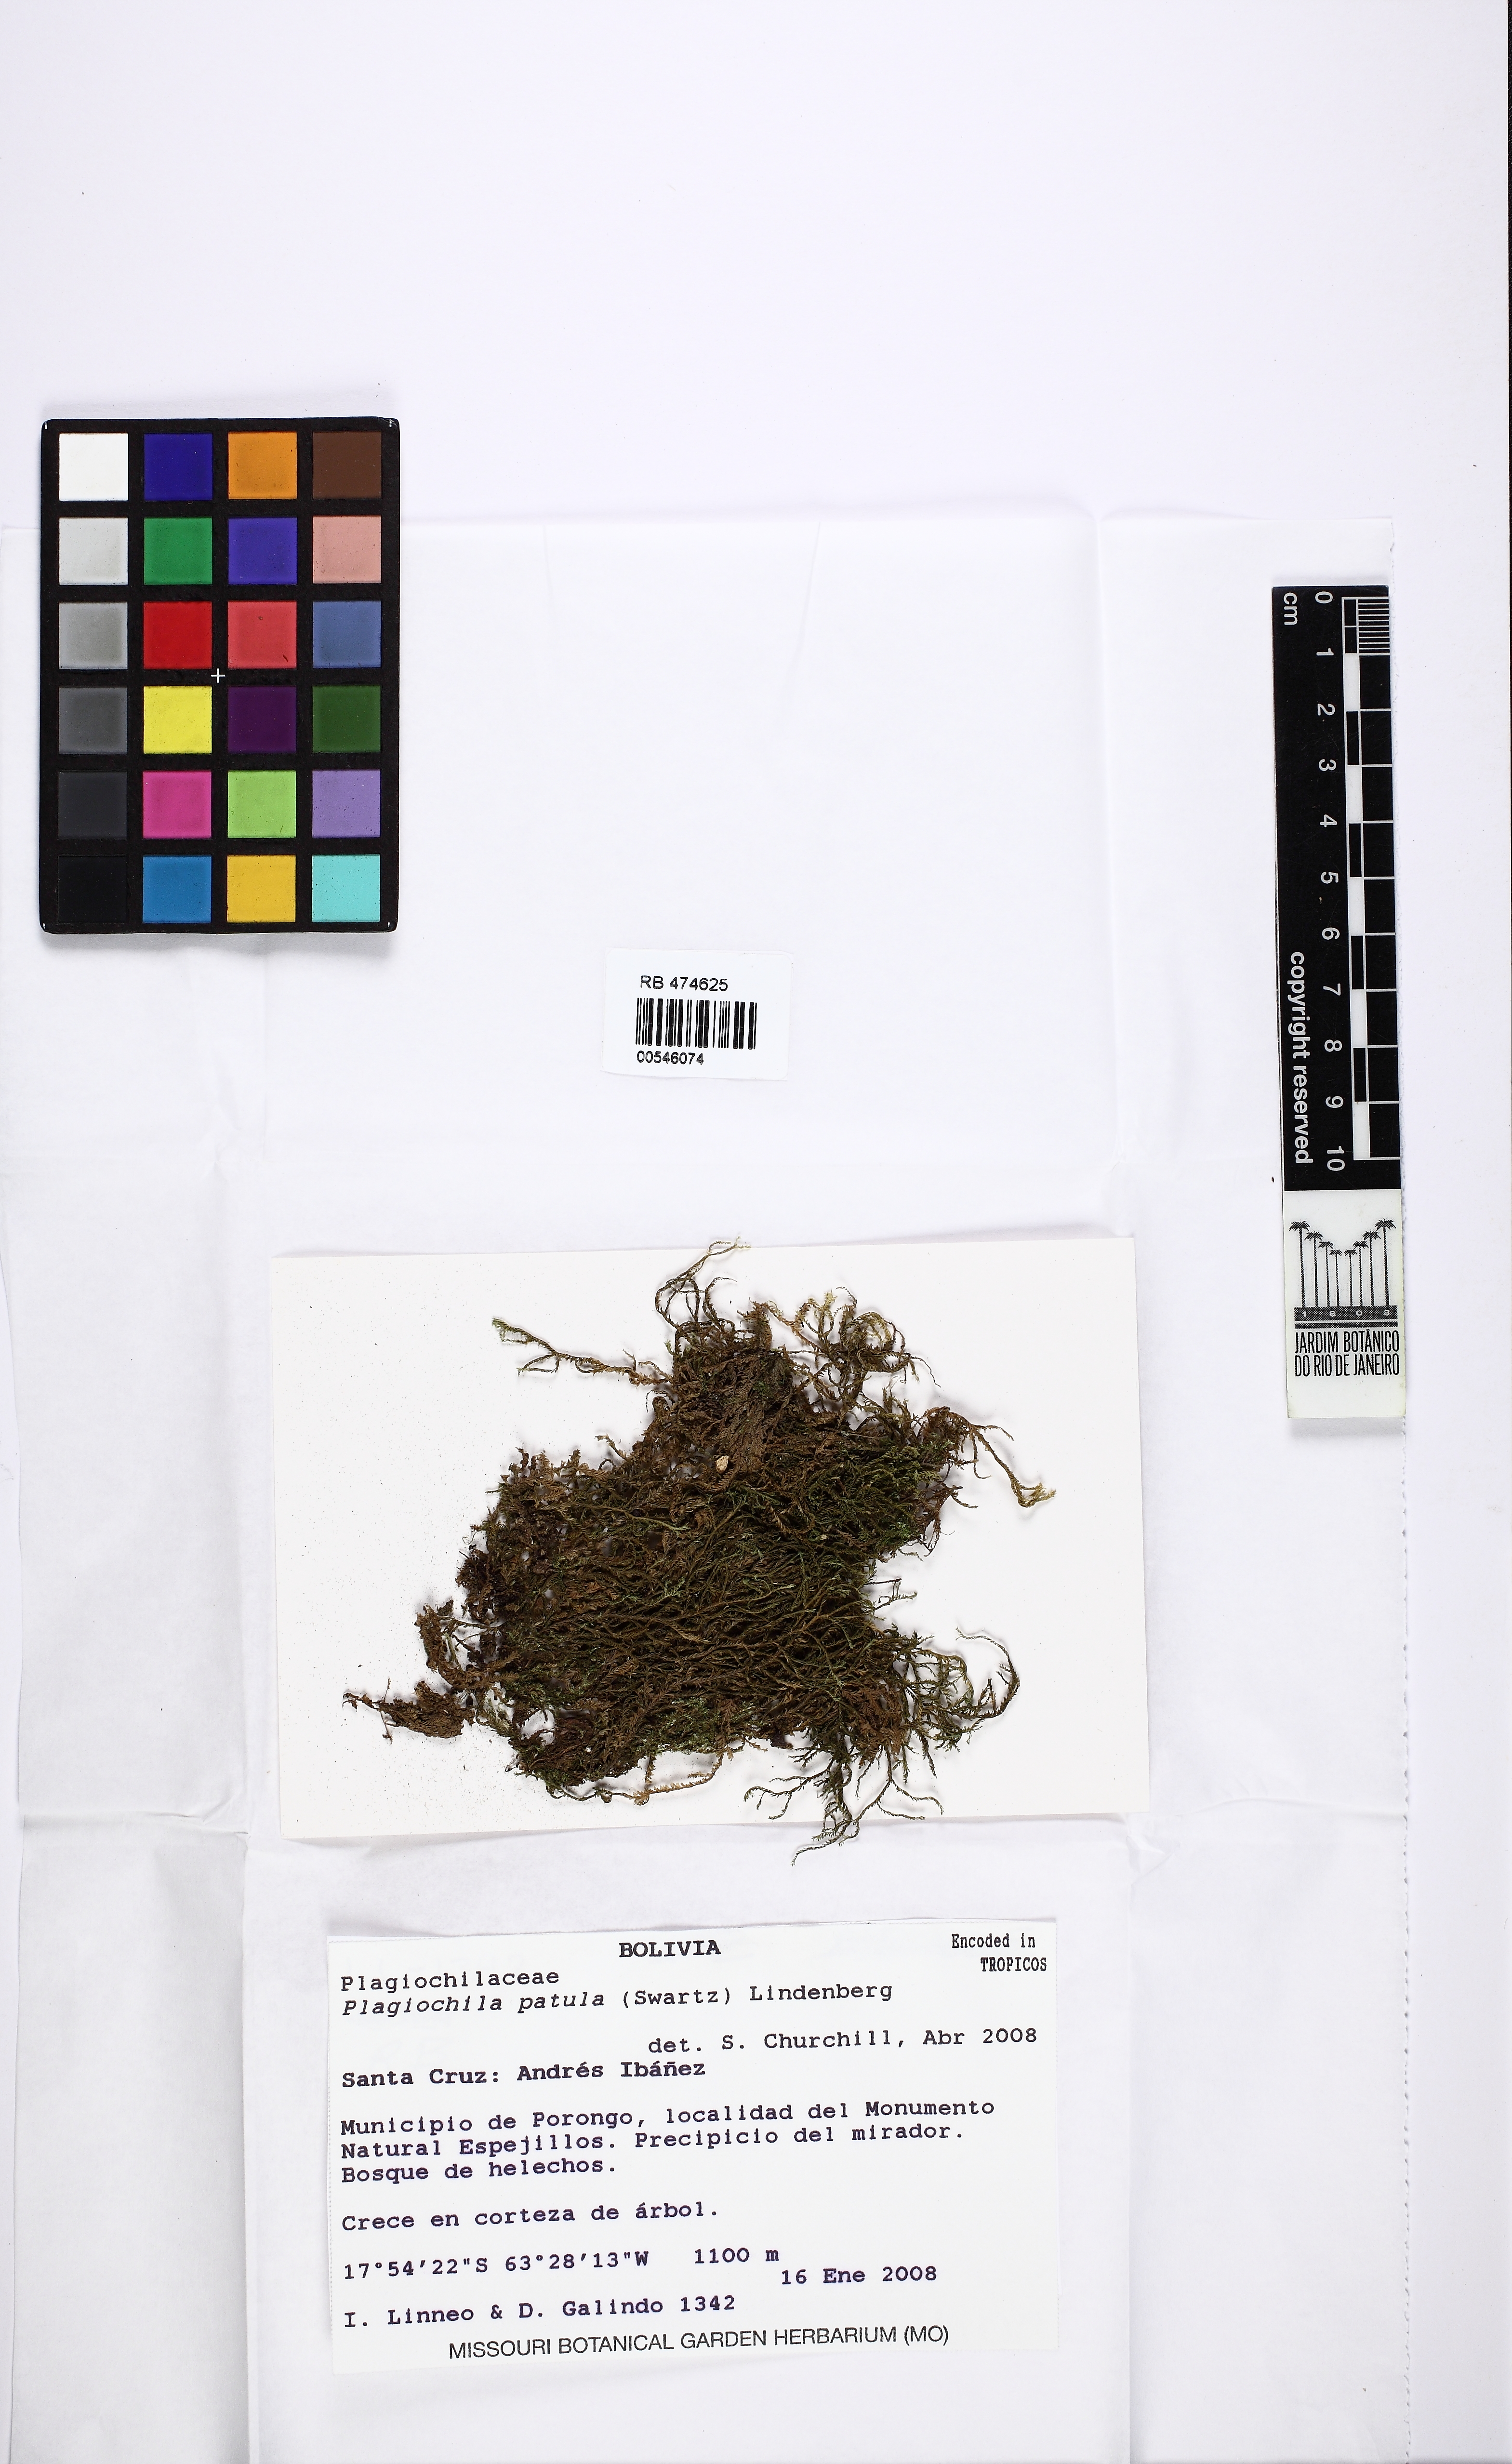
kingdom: Plantae
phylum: Marchantiophyta
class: Jungermanniopsida
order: Jungermanniales
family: Plagiochilaceae
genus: Plagiochila
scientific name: Plagiochila patula
